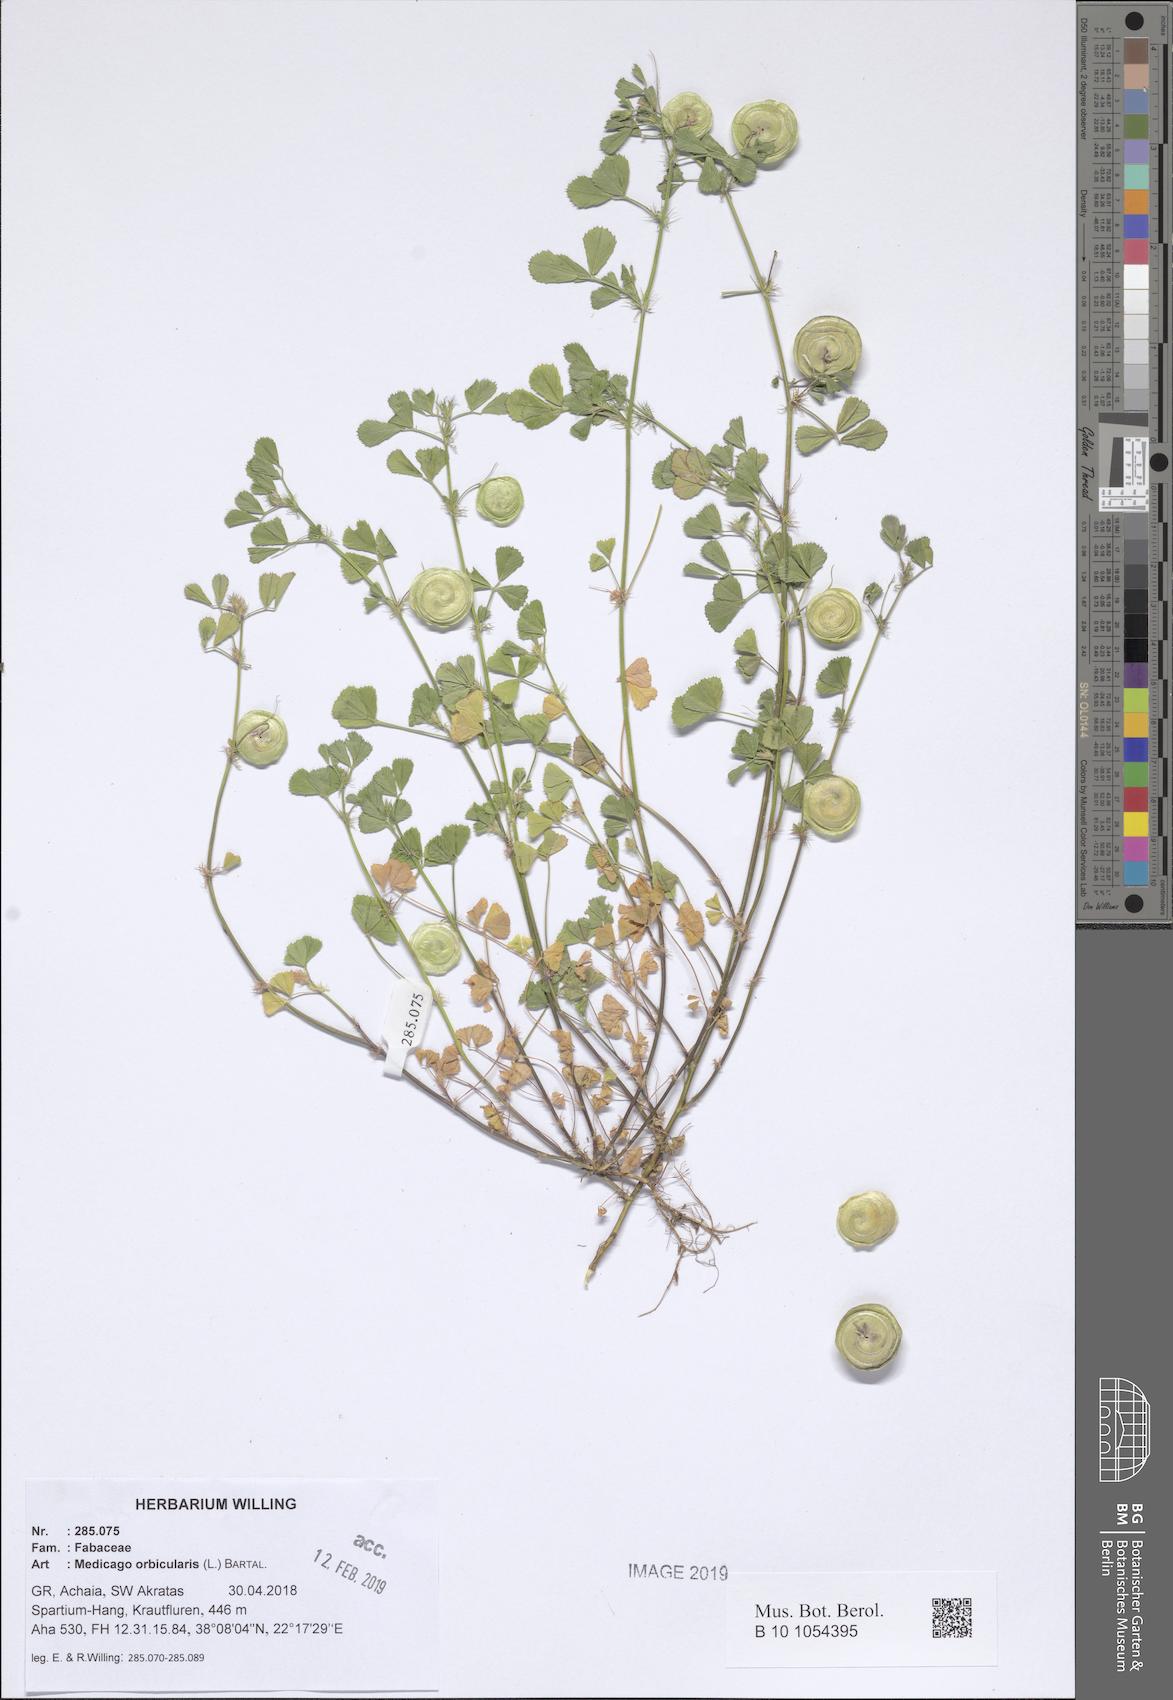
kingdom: Plantae
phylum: Tracheophyta
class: Magnoliopsida
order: Fabales
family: Fabaceae
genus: Medicago
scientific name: Medicago orbicularis
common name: Button medick
